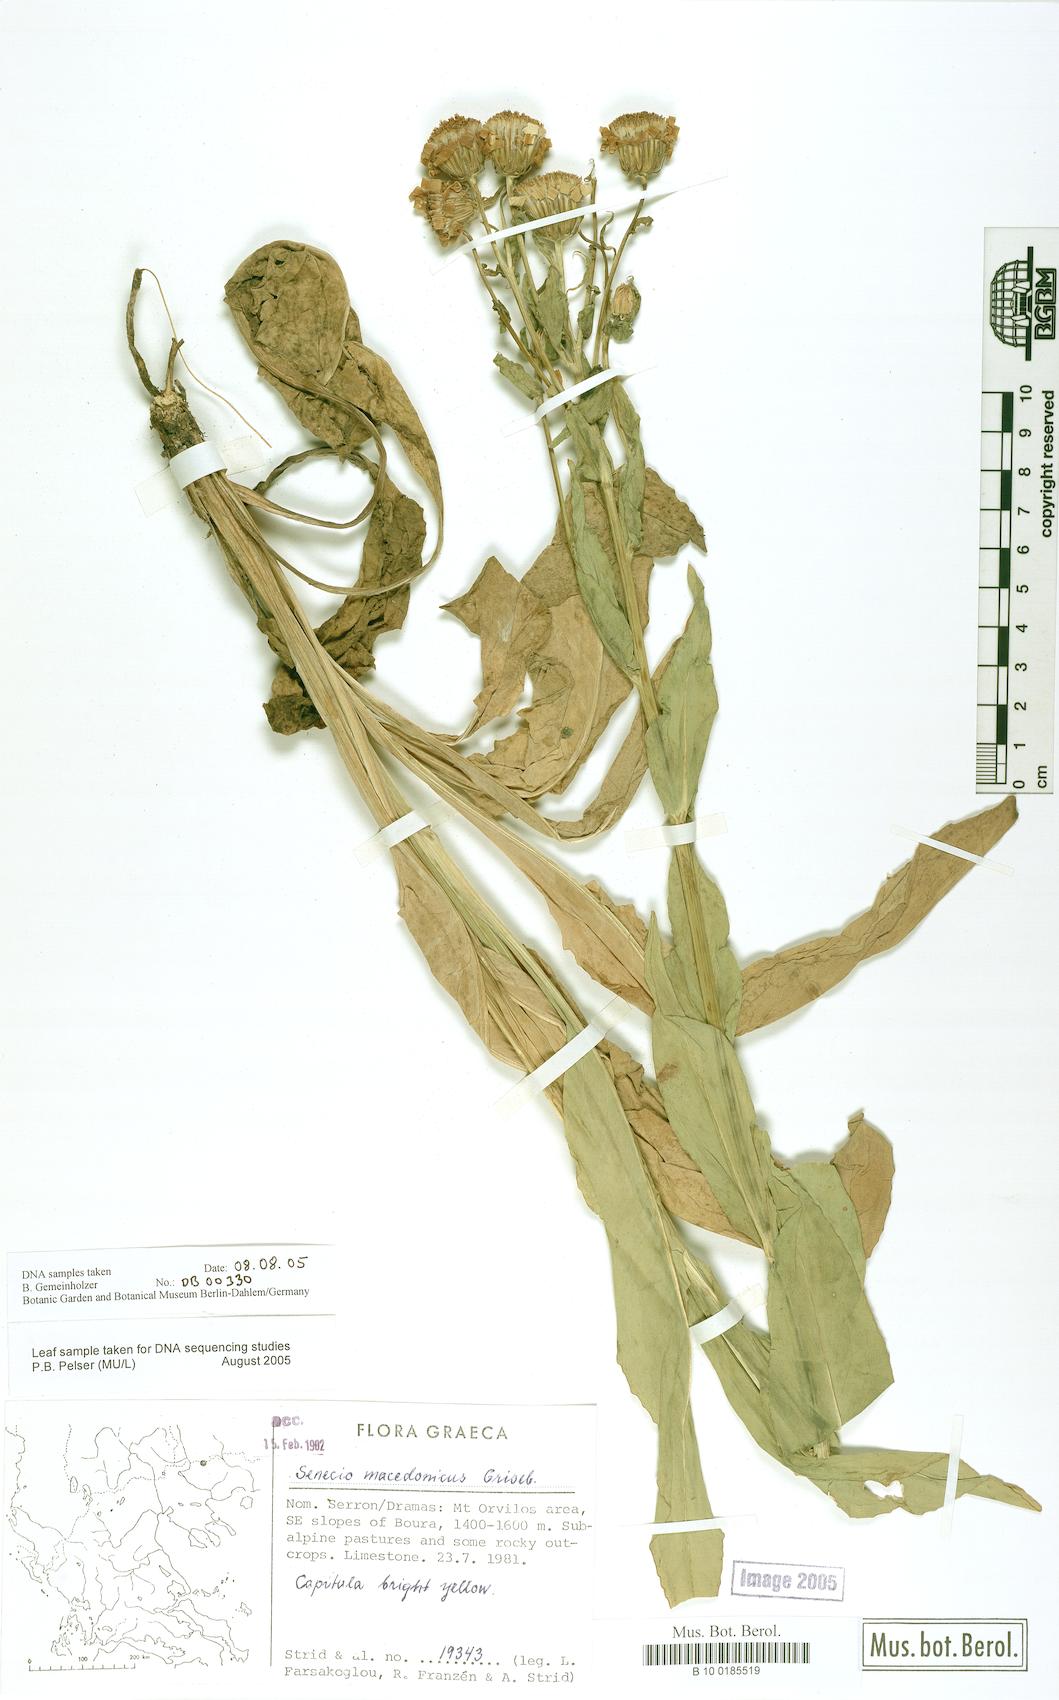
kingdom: Plantae
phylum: Tracheophyta
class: Magnoliopsida
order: Asterales
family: Asteraceae
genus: Senecio
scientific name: Senecio macedonicus
